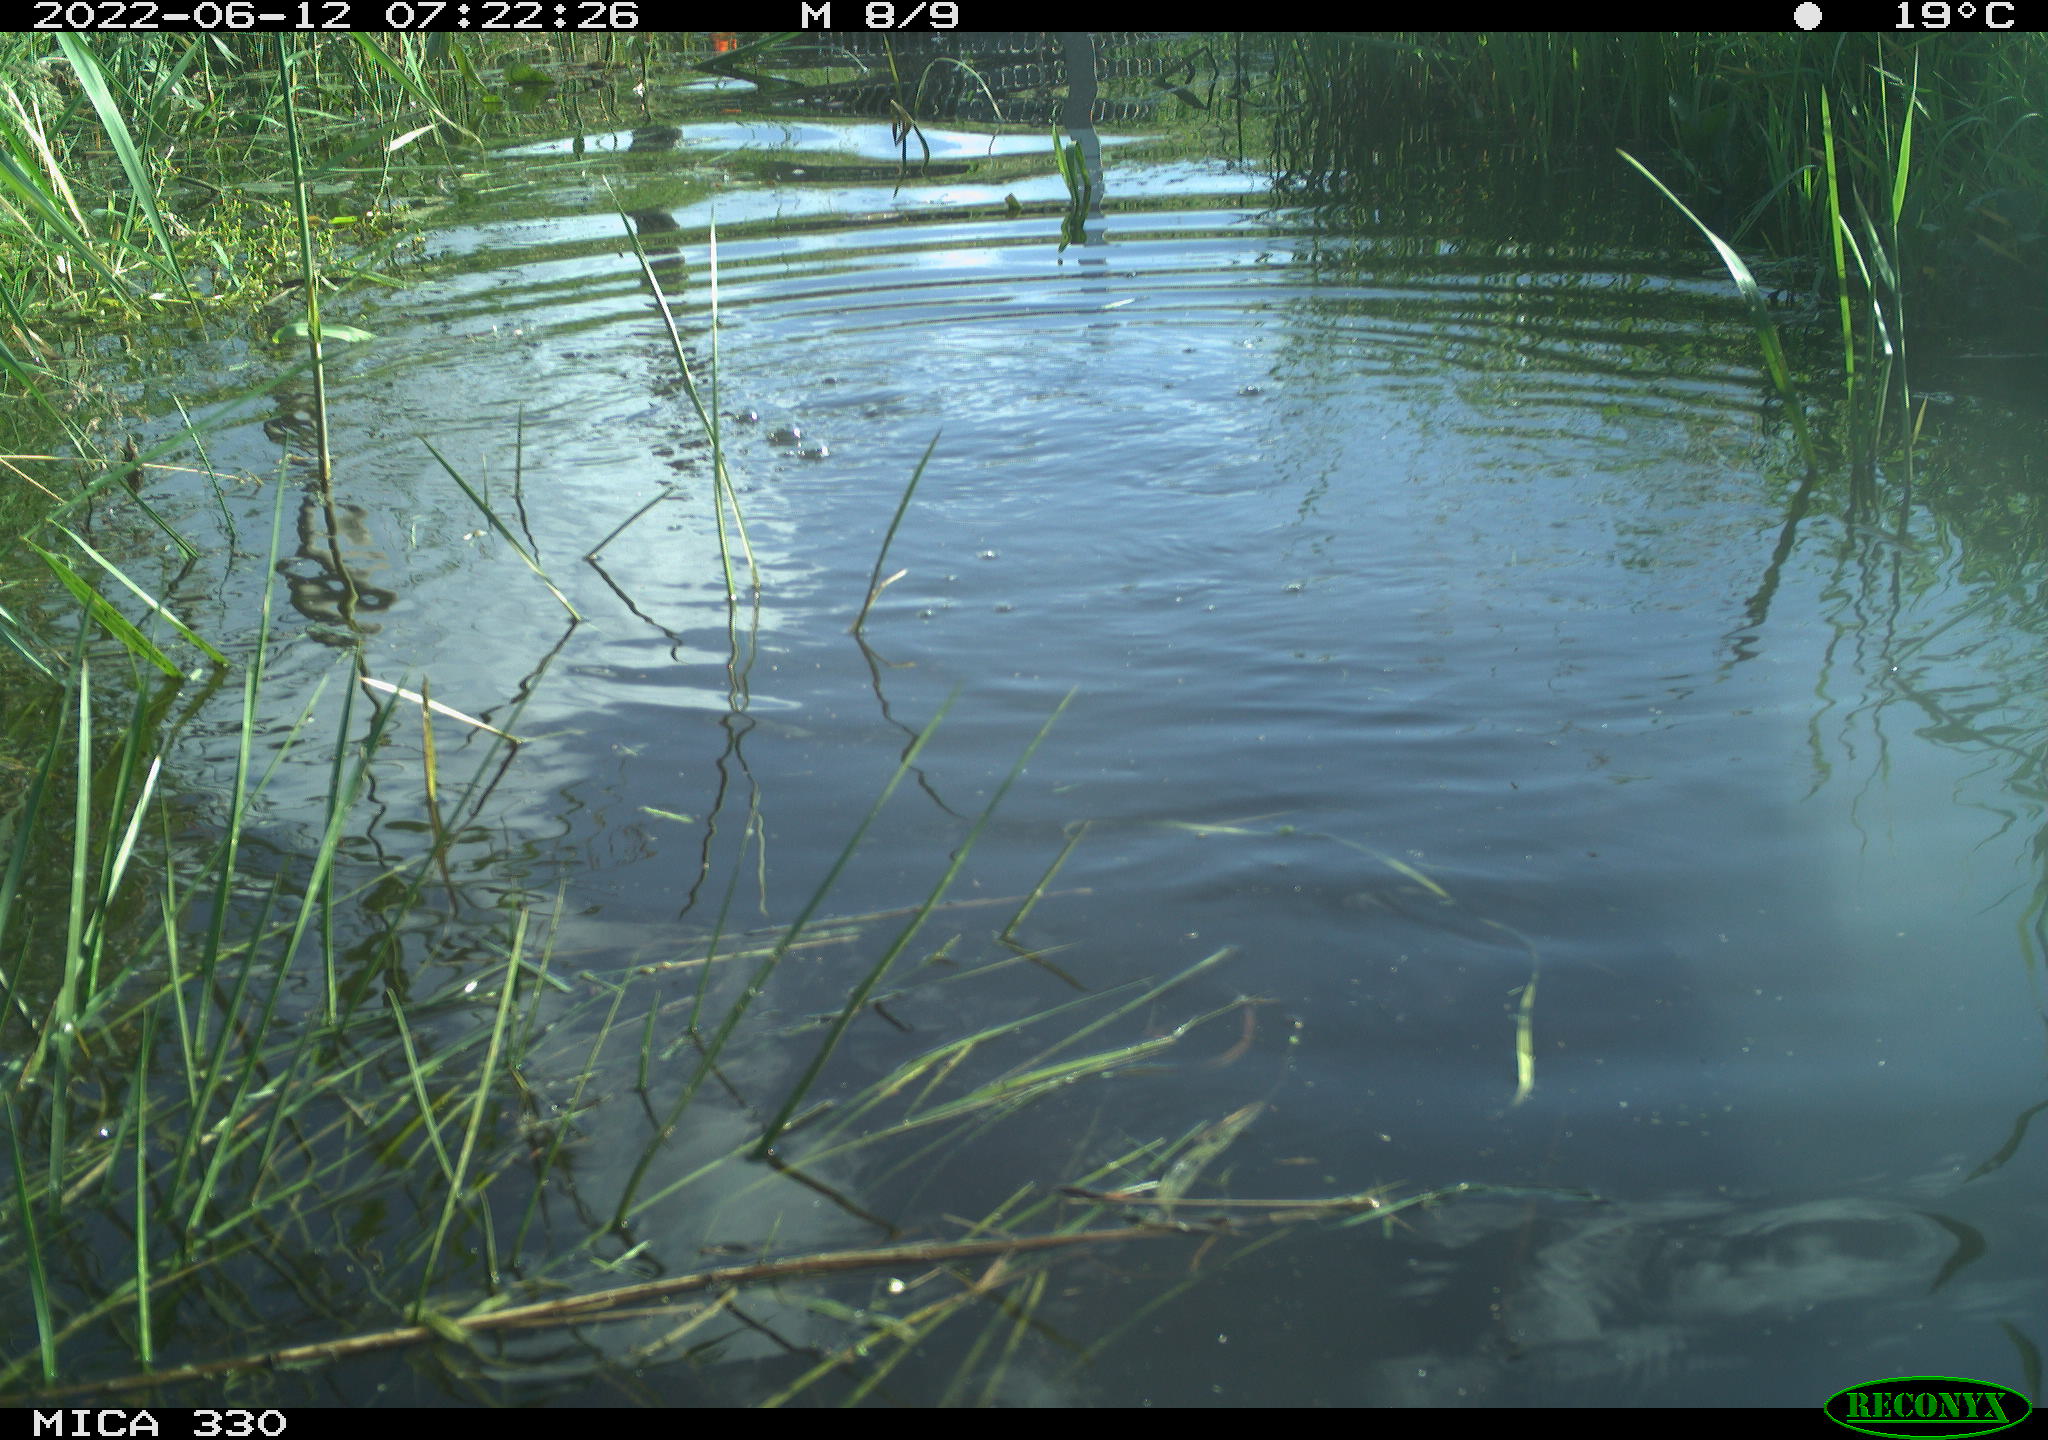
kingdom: Animalia
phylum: Chordata
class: Aves
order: Suliformes
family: Phalacrocoracidae
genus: Phalacrocorax
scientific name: Phalacrocorax carbo
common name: Great cormorant
